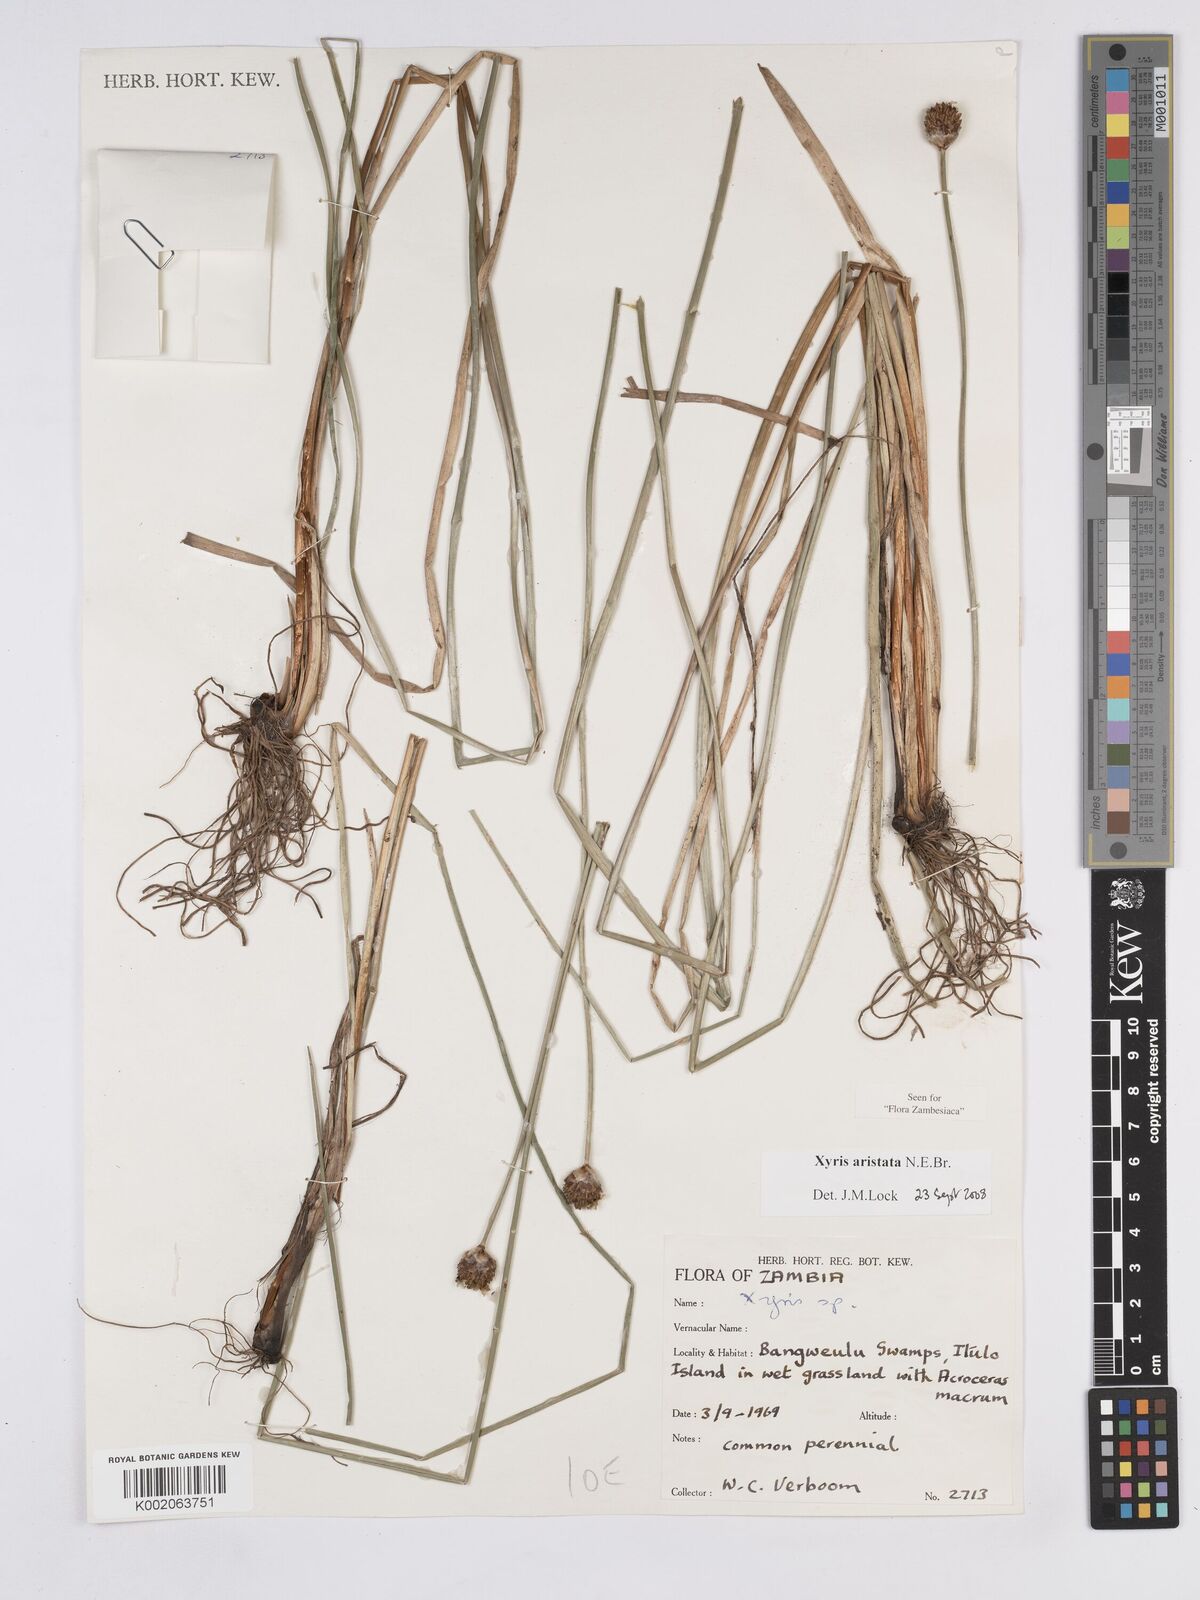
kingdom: Plantae
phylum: Tracheophyta
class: Liliopsida
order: Poales
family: Xyridaceae
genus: Xyris
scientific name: Xyris aristata
